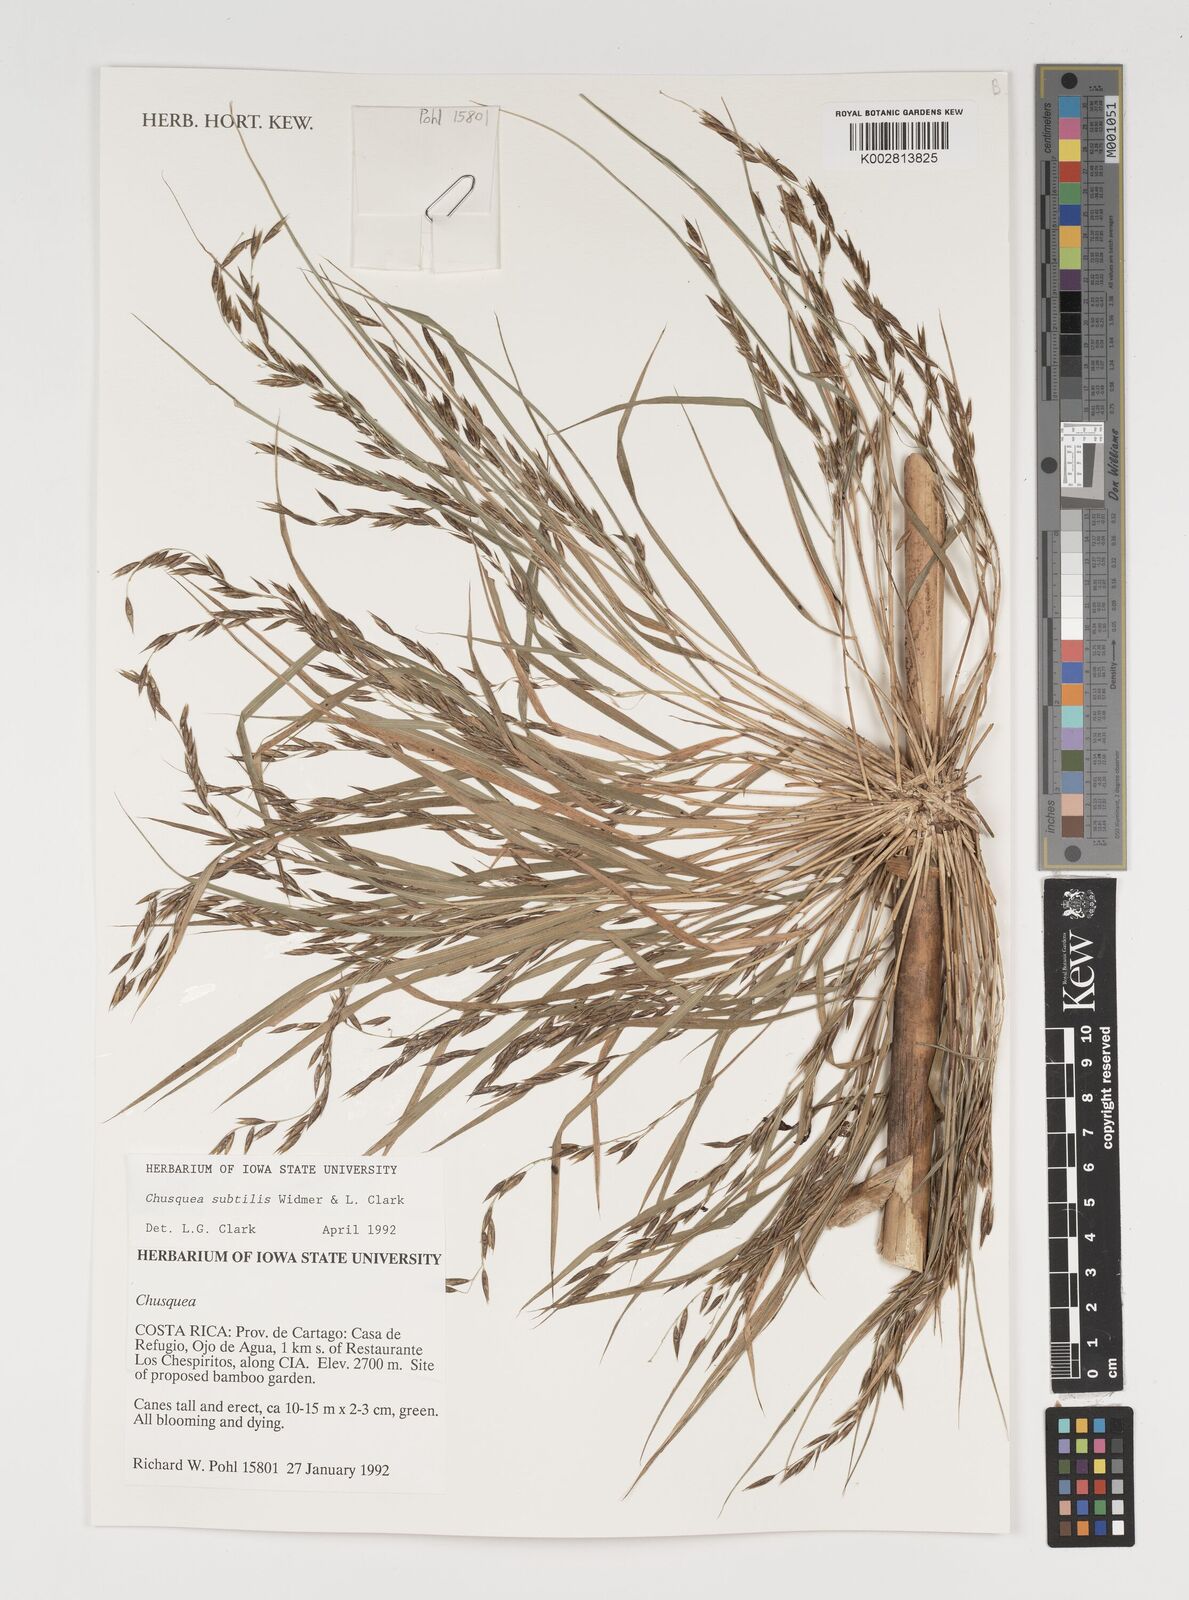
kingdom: Plantae
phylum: Tracheophyta
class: Liliopsida
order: Poales
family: Poaceae
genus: Chusquea
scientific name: Chusquea subtilis
